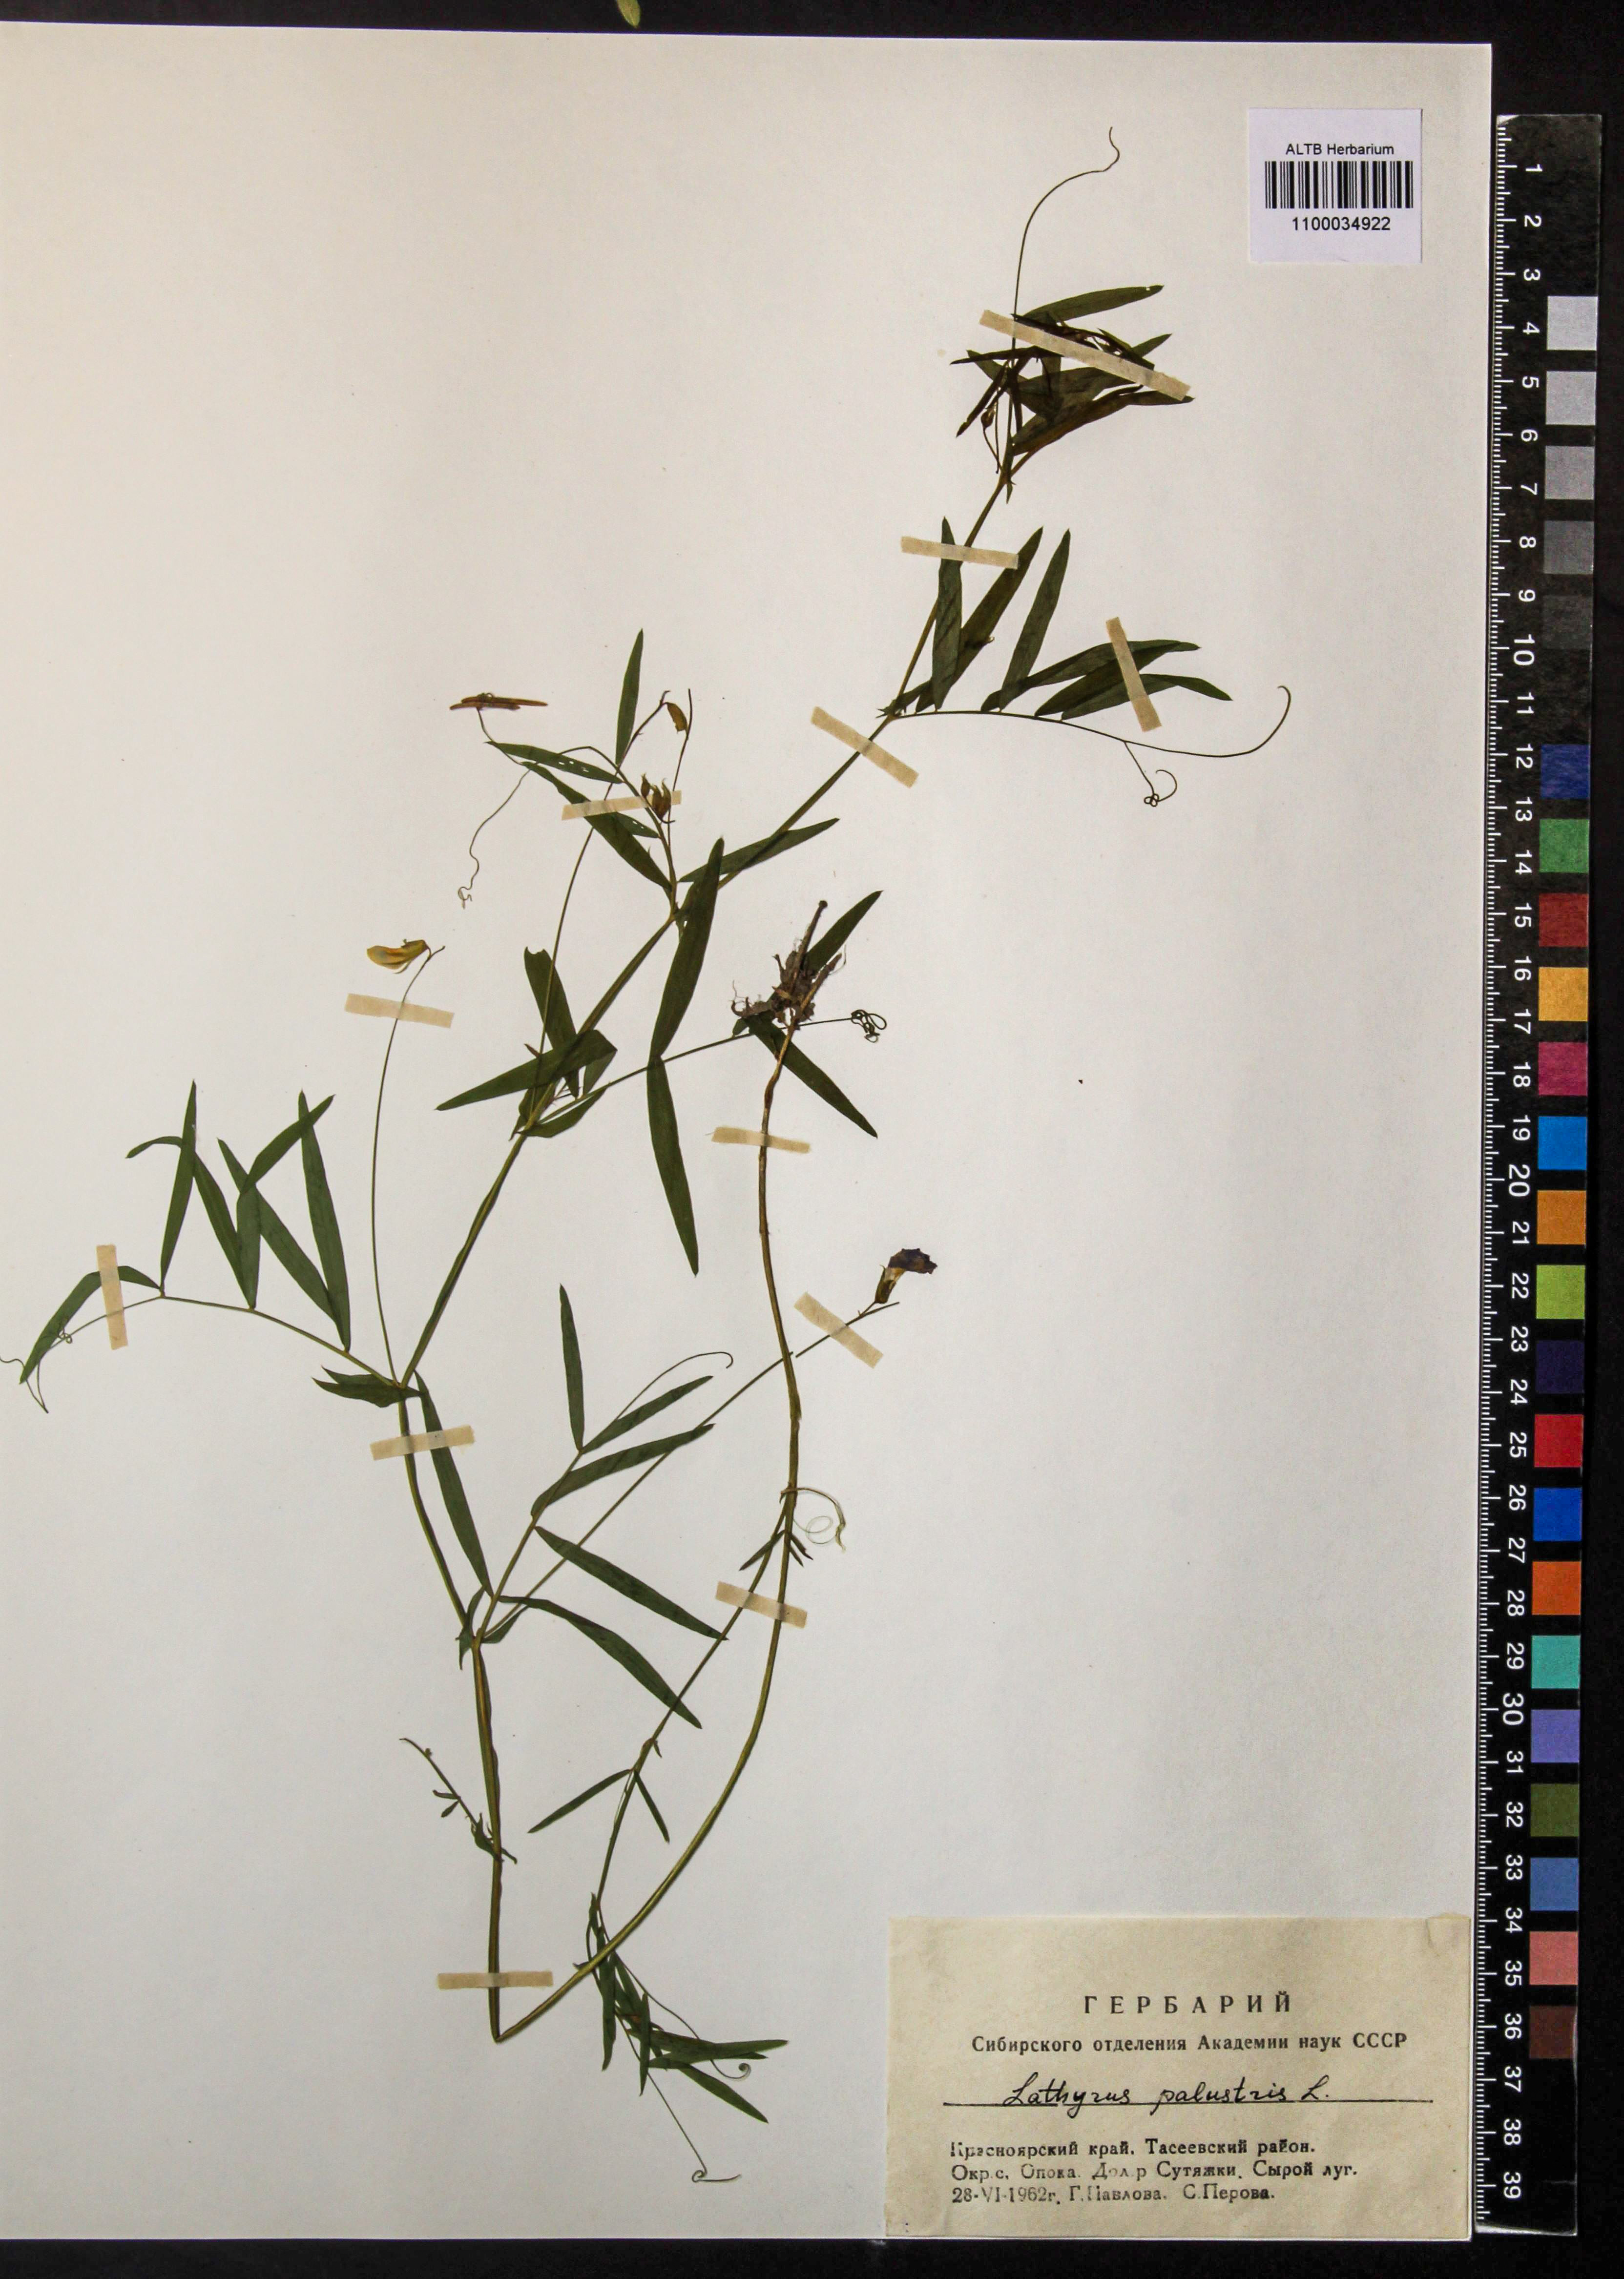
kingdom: Plantae
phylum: Tracheophyta
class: Magnoliopsida
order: Fabales
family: Fabaceae
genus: Lathyrus
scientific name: Lathyrus palustris
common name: Marsh pea
